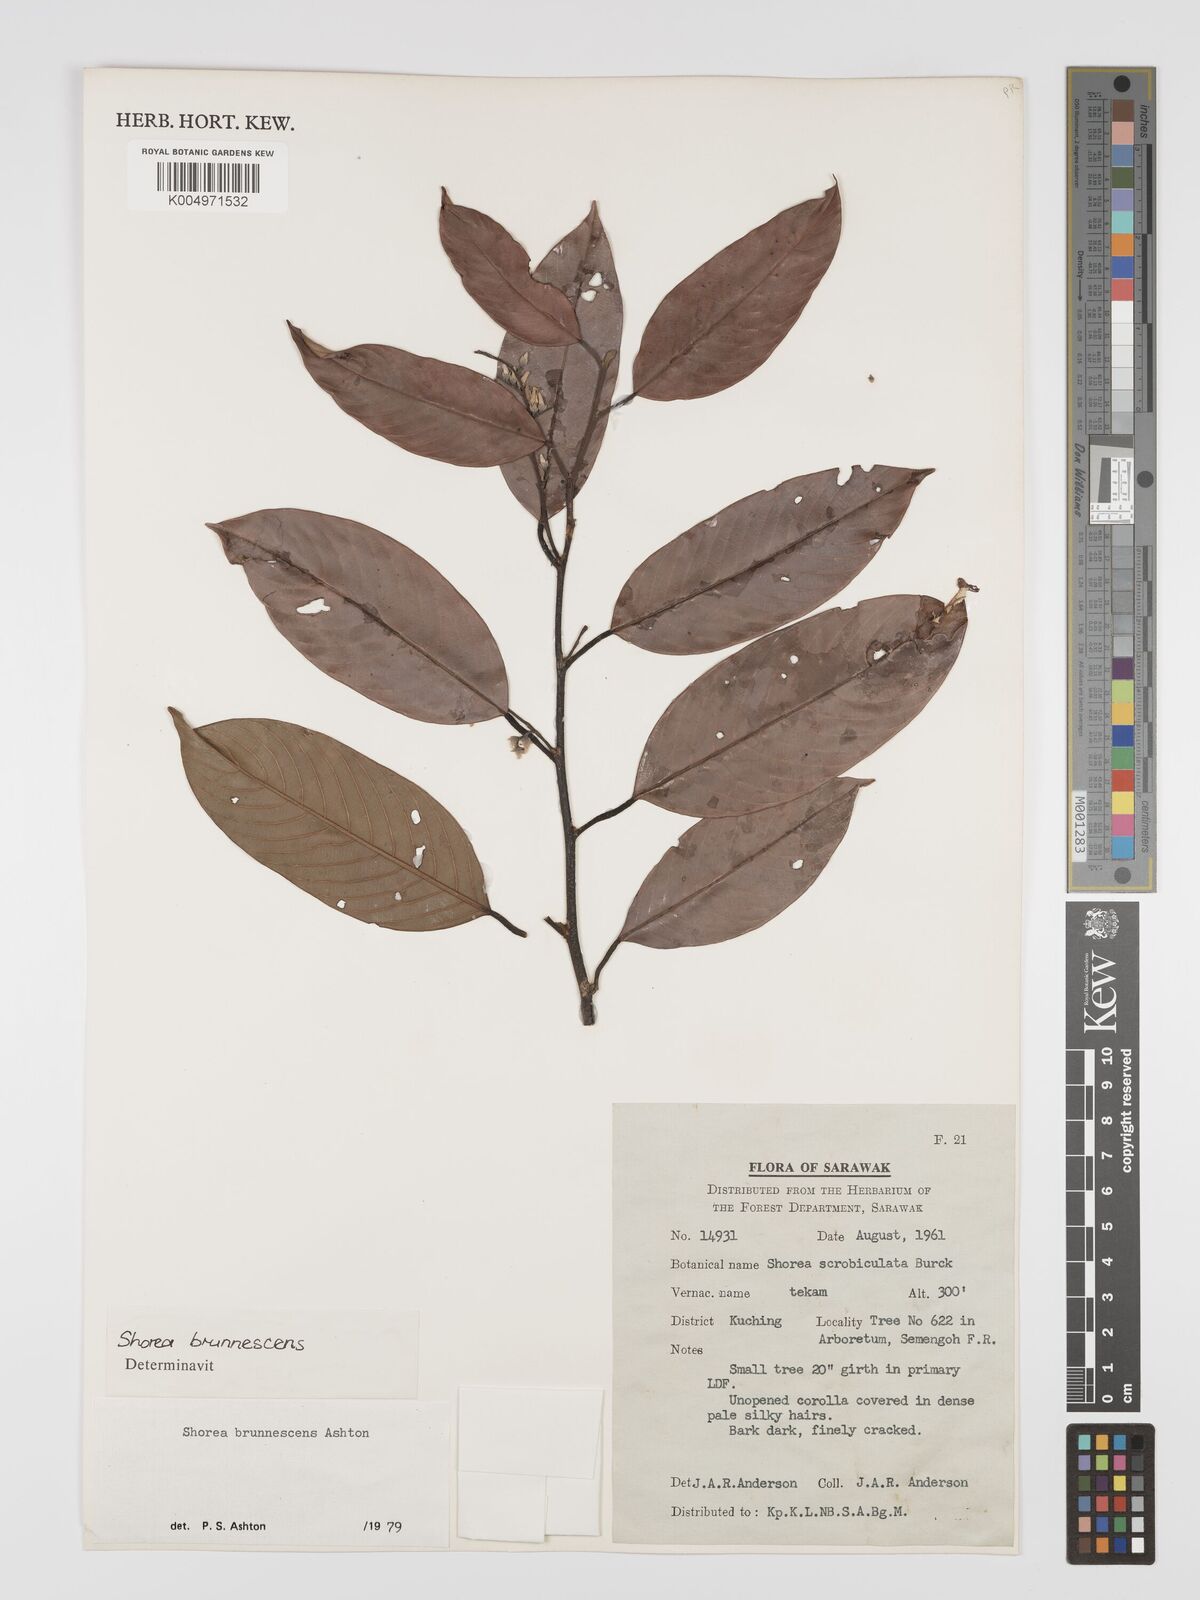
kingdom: Plantae
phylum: Tracheophyta
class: Magnoliopsida
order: Malvales
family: Dipterocarpaceae
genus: Shorea
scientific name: Shorea brunnescens
